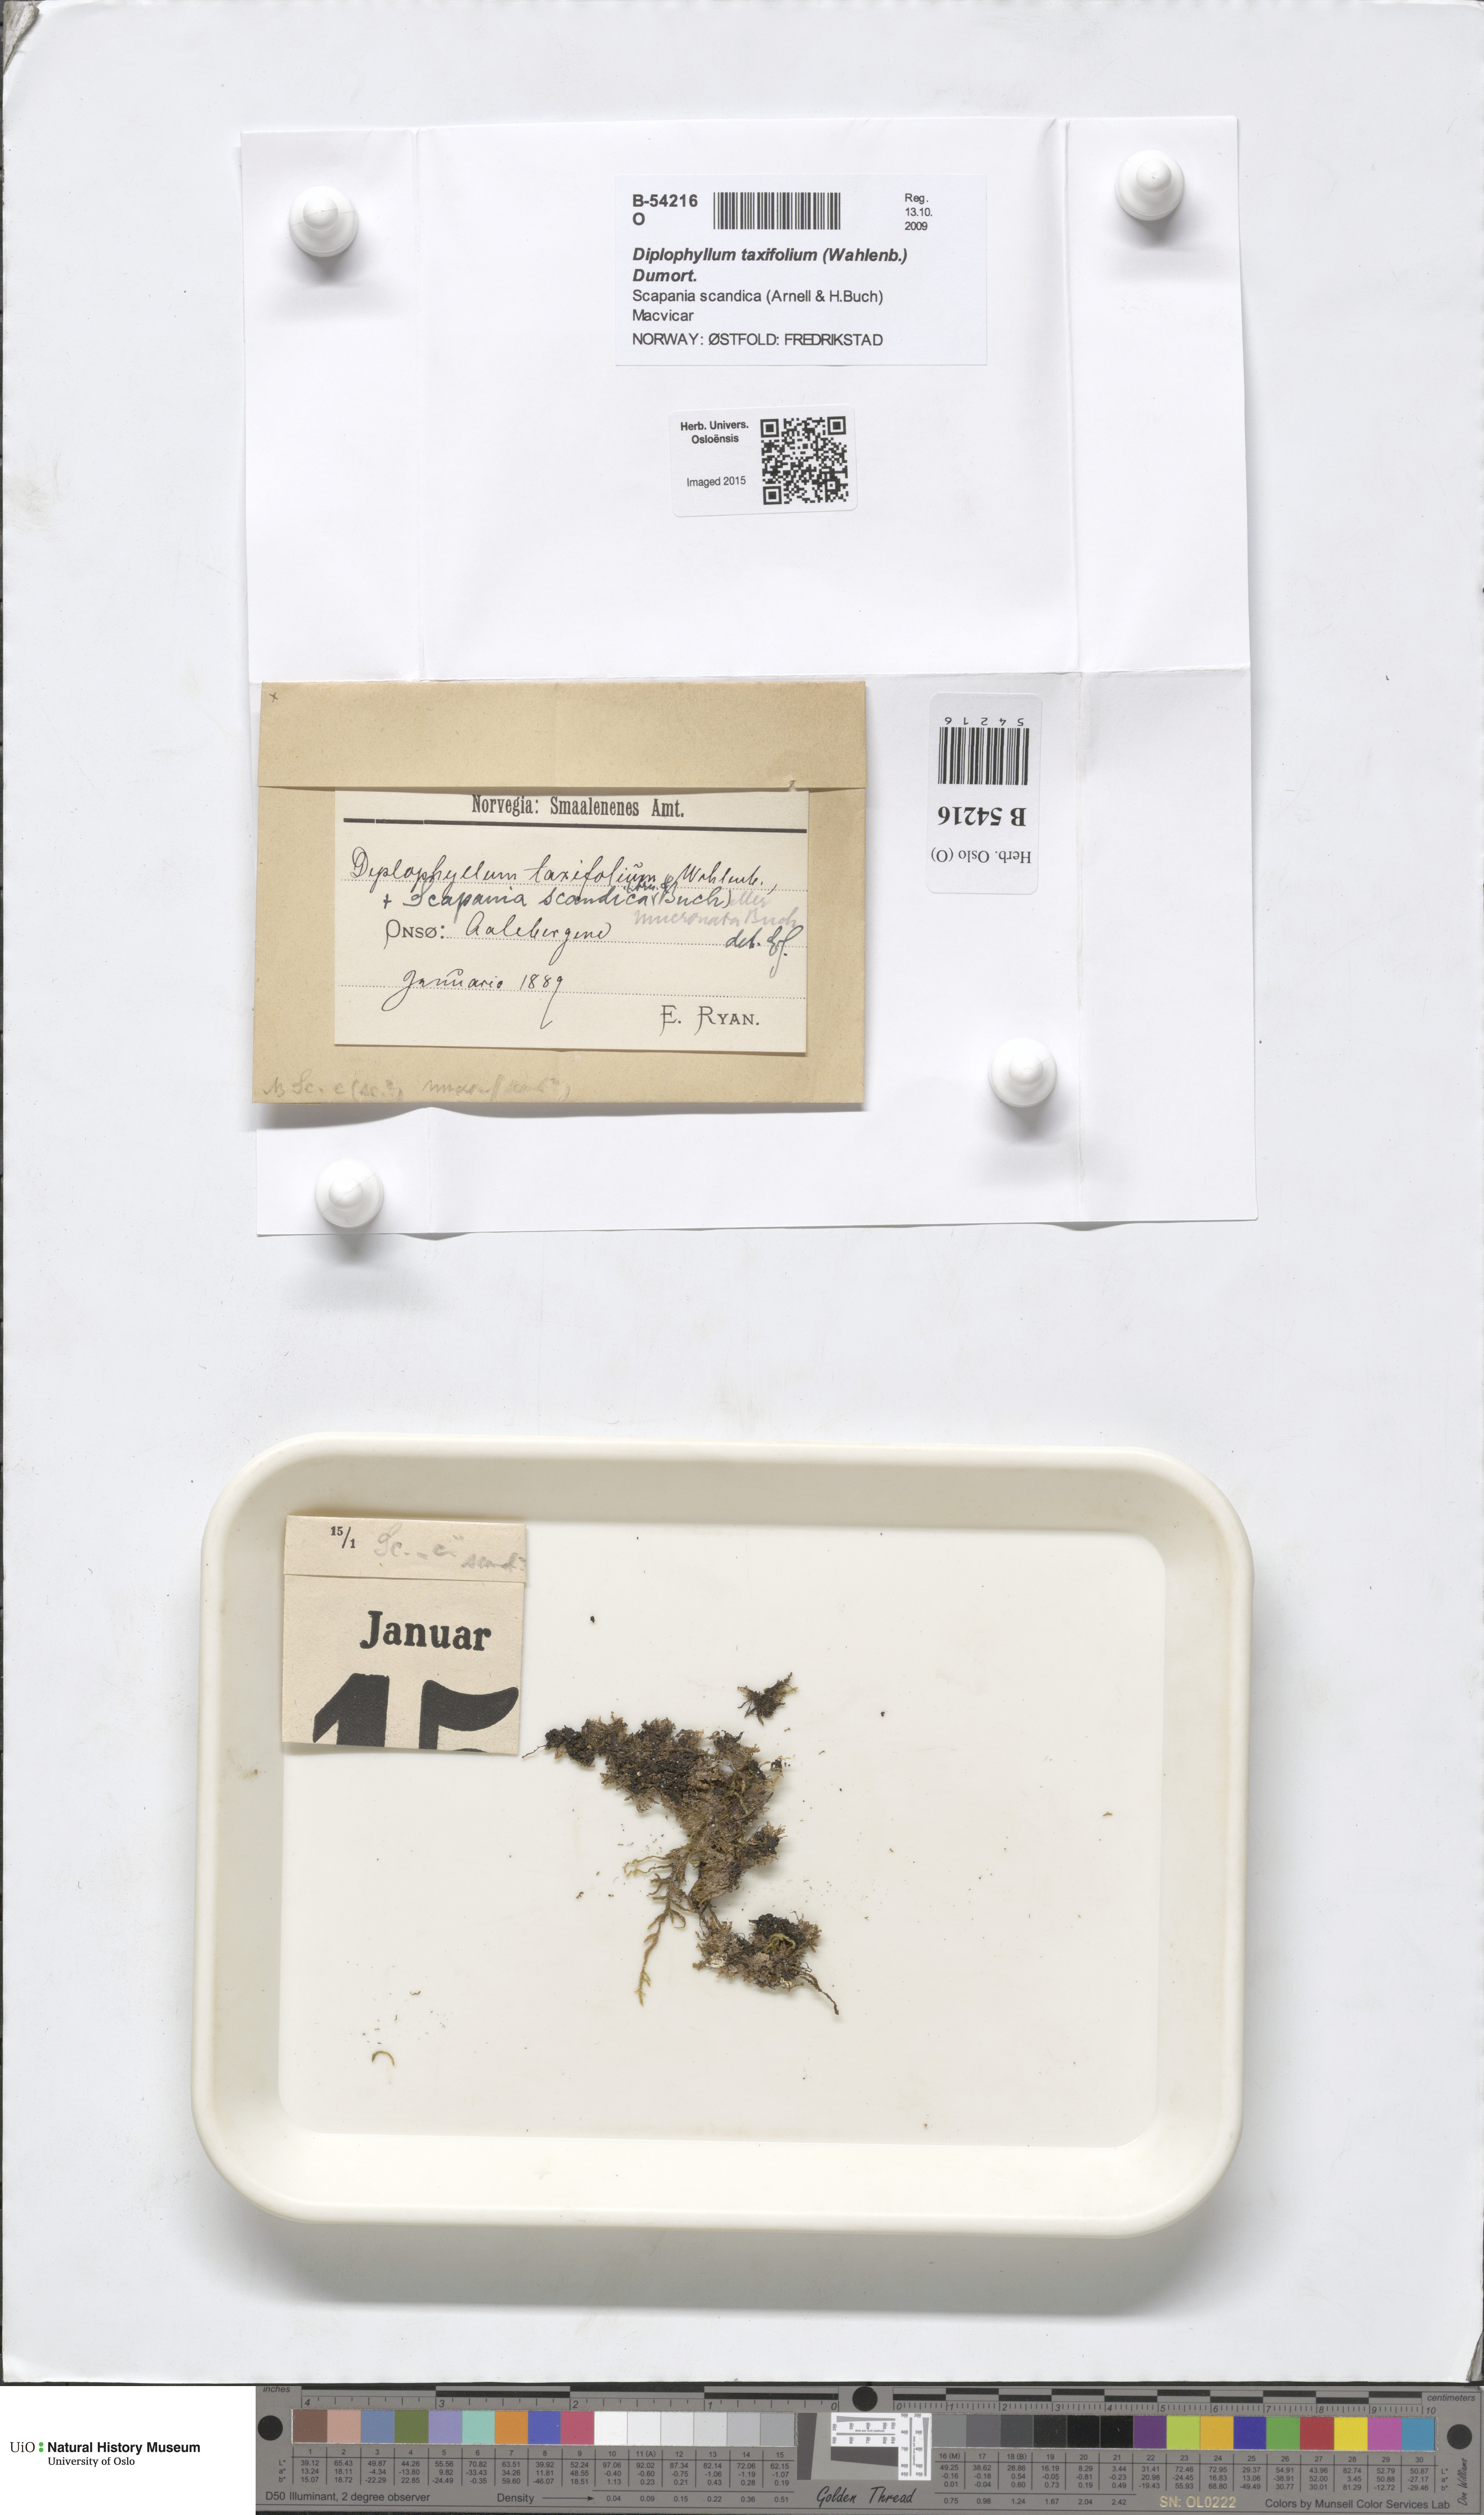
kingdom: Plantae
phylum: Marchantiophyta
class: Jungermanniopsida
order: Jungermanniales
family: Scapaniaceae
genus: Diplophyllum
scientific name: Diplophyllum taxifolium
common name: Alpine earwort
